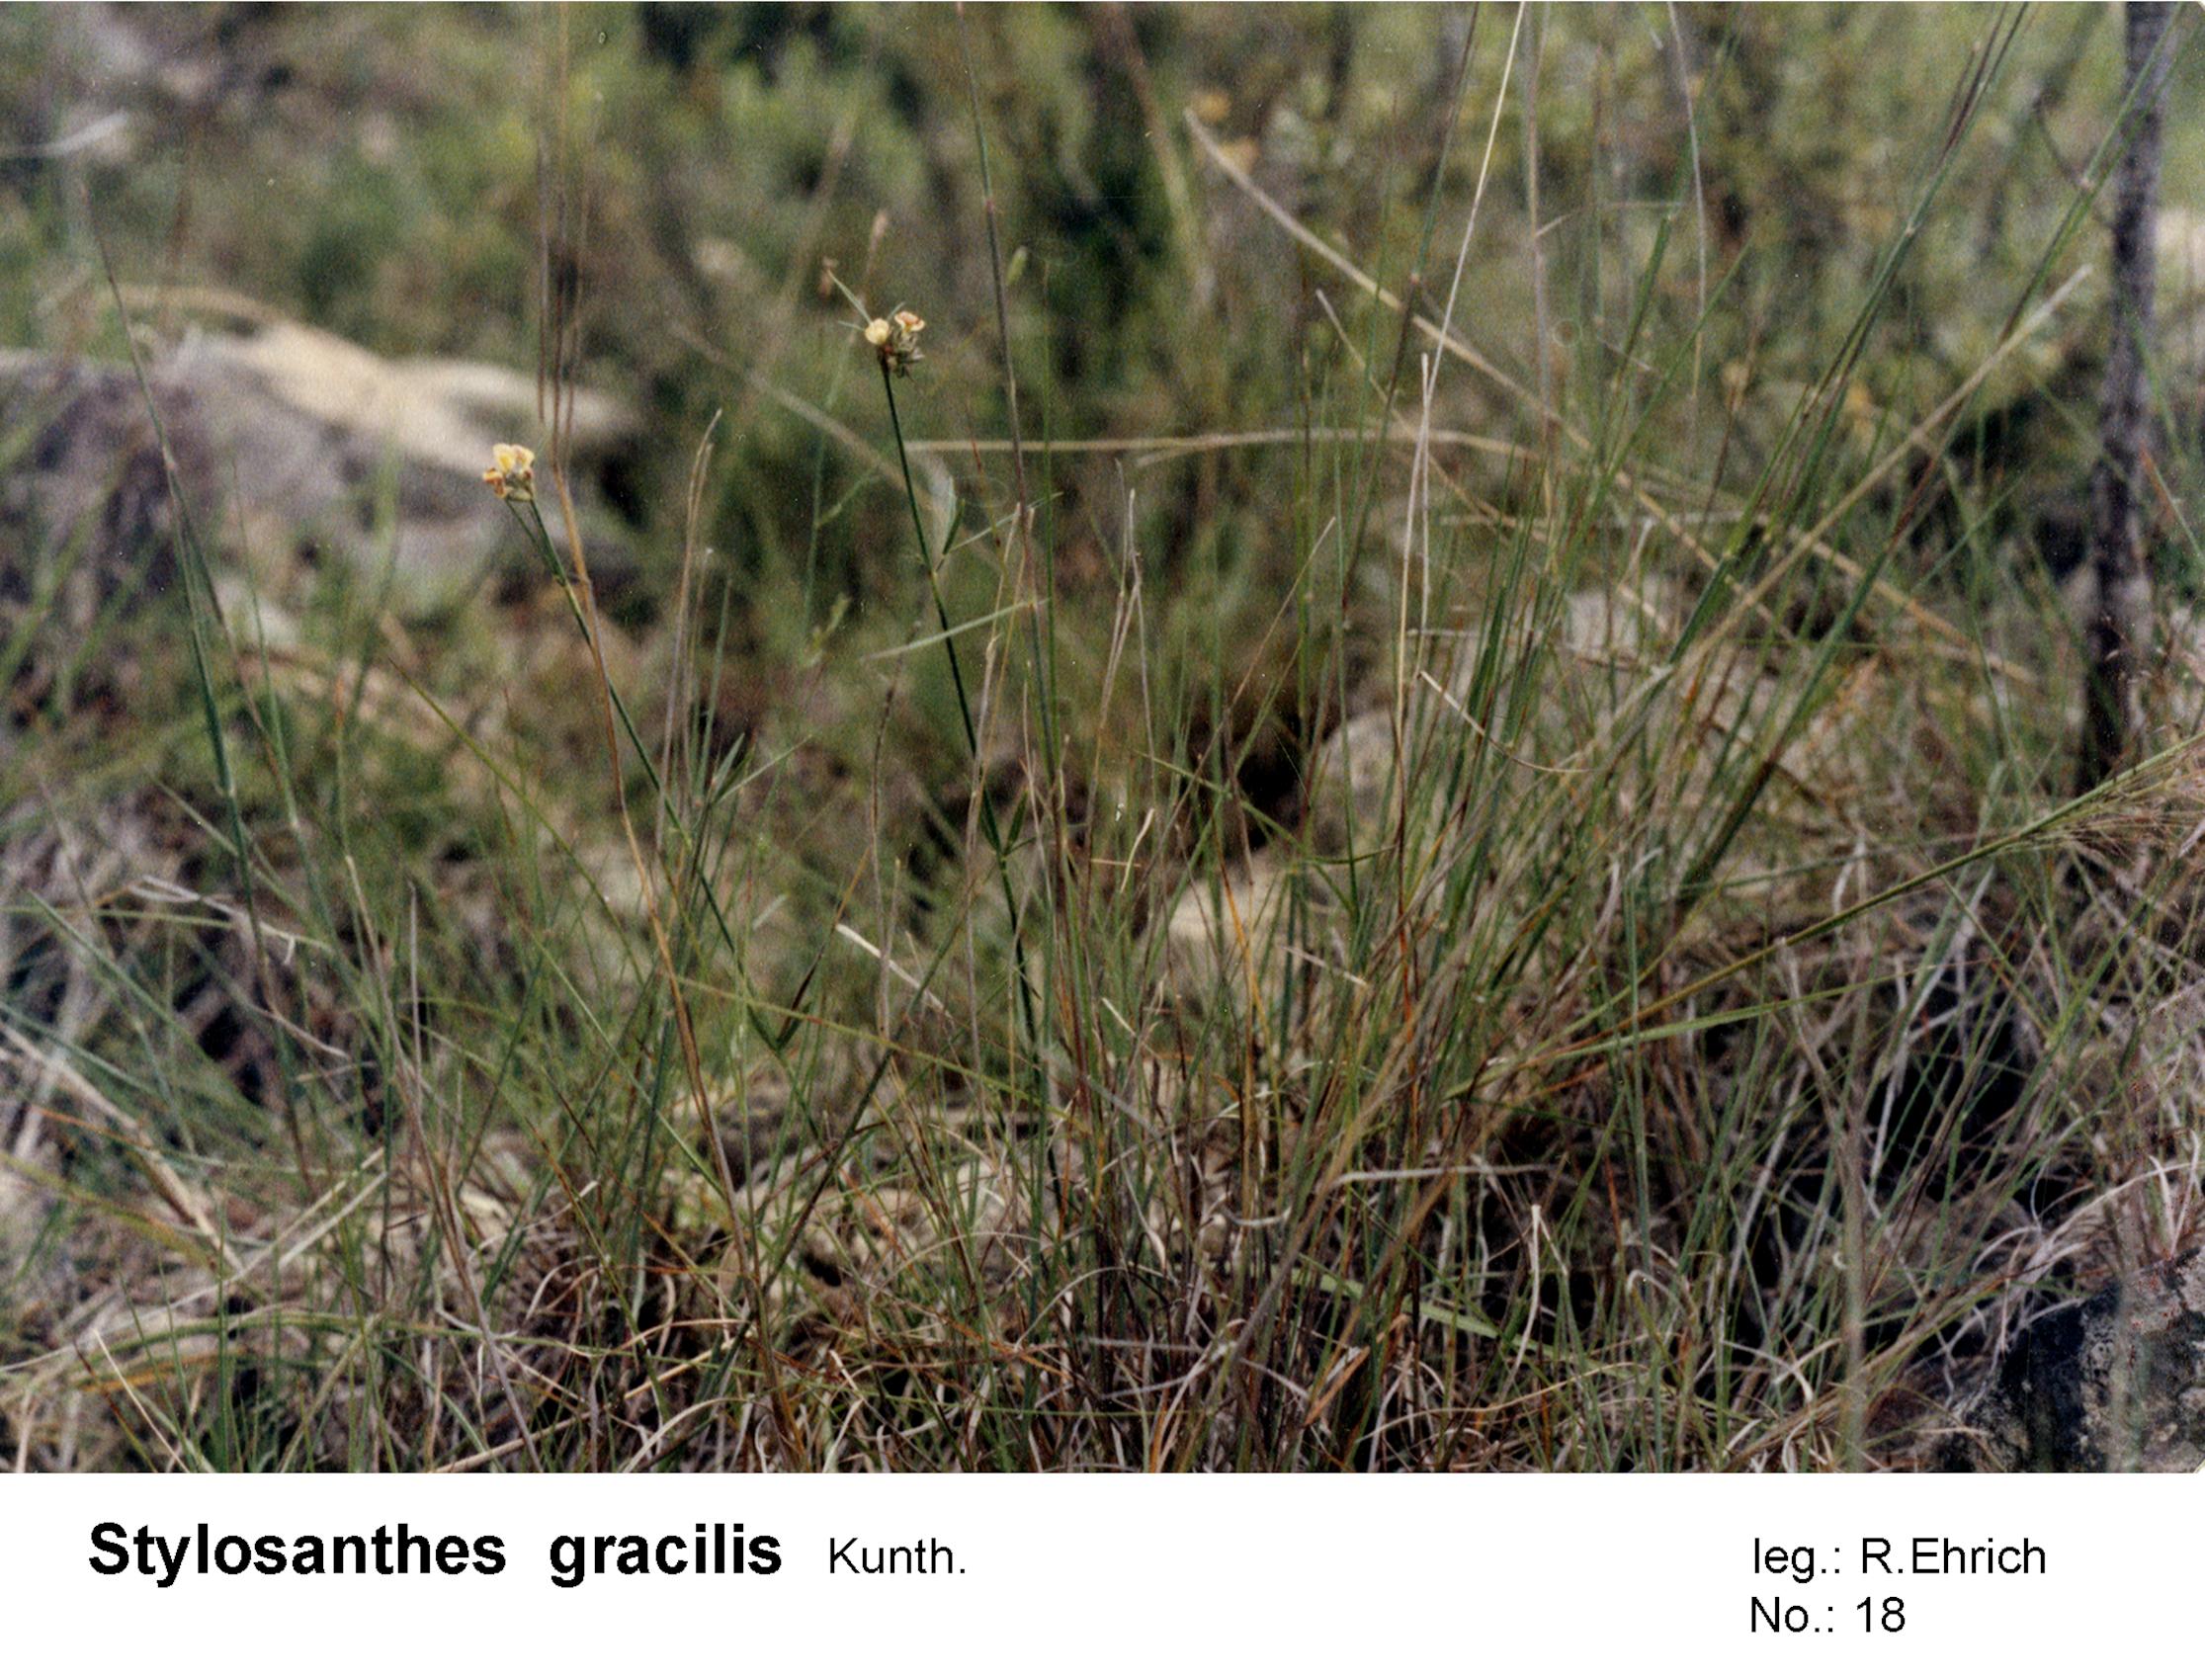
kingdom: Plantae
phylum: Tracheophyta
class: Magnoliopsida
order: Fabales
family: Fabaceae
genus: Stylosanthes
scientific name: Stylosanthes guianensis
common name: Pencil flower
